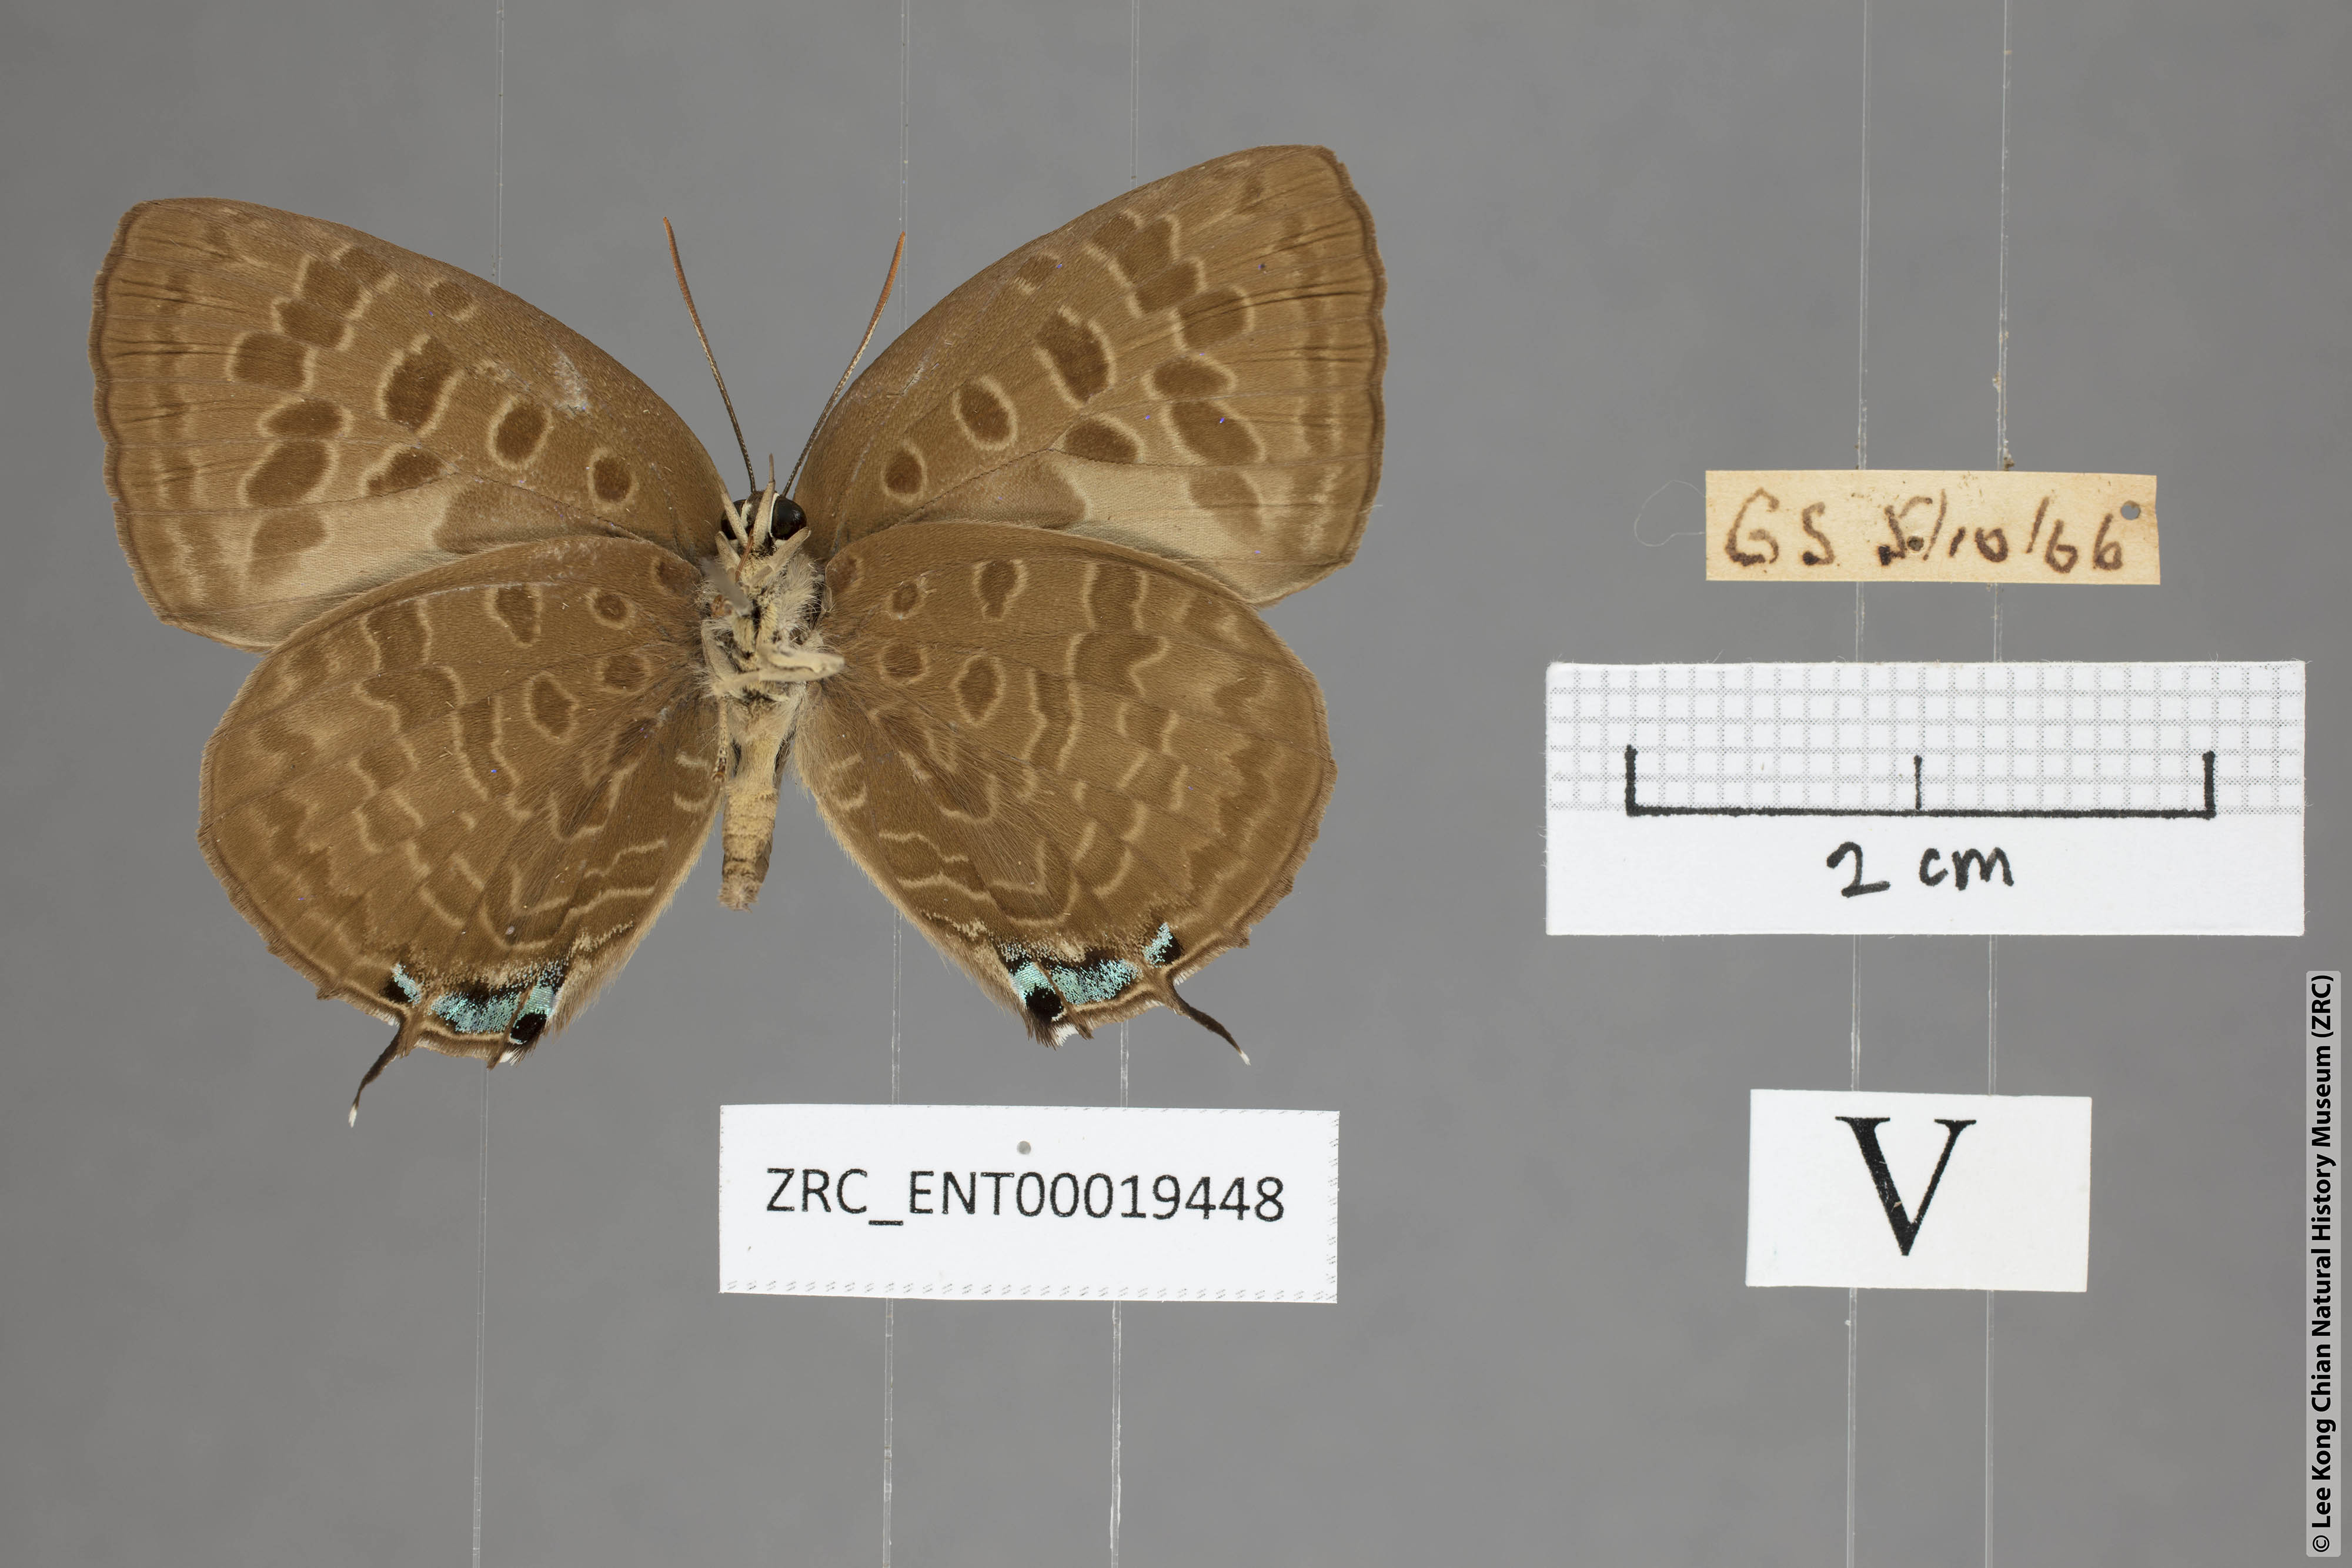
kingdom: Animalia
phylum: Arthropoda
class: Insecta
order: Lepidoptera
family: Lycaenidae
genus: Arhopala
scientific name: Arhopala eumolphus
